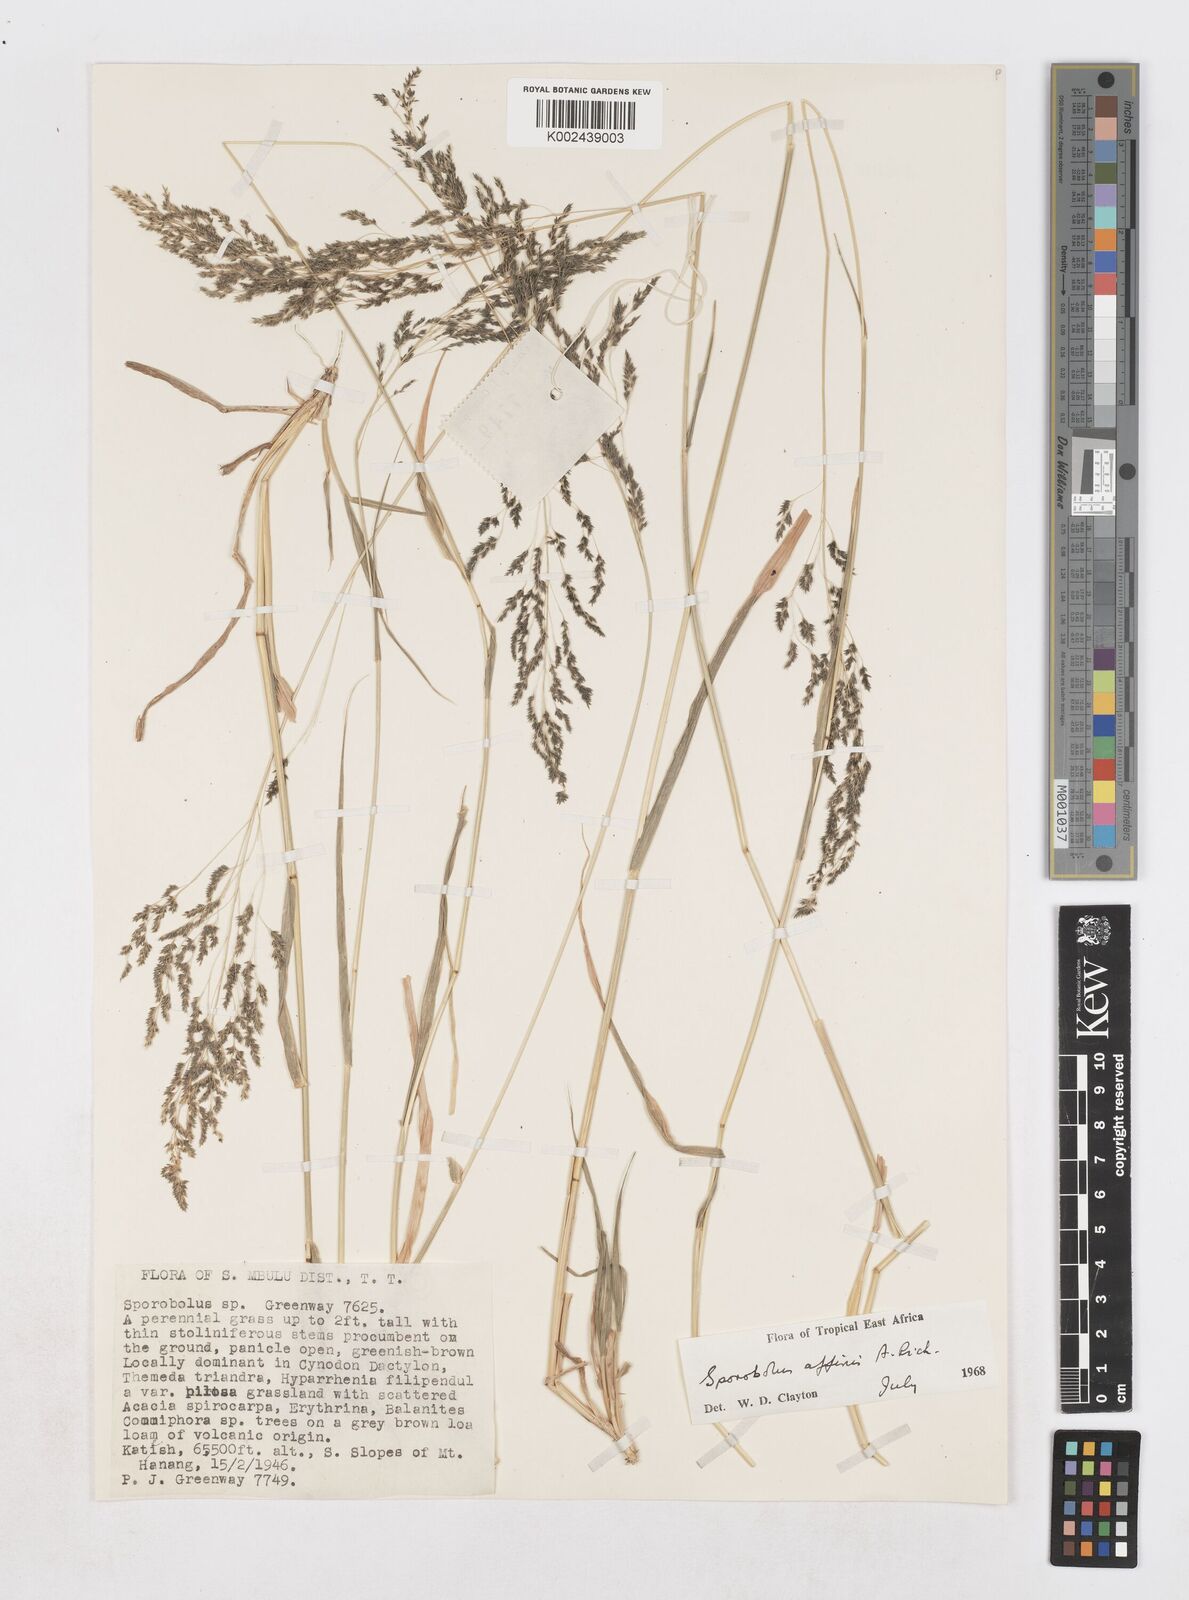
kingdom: Plantae
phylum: Tracheophyta
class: Liliopsida
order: Poales
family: Poaceae
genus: Sporobolus
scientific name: Sporobolus confinis
